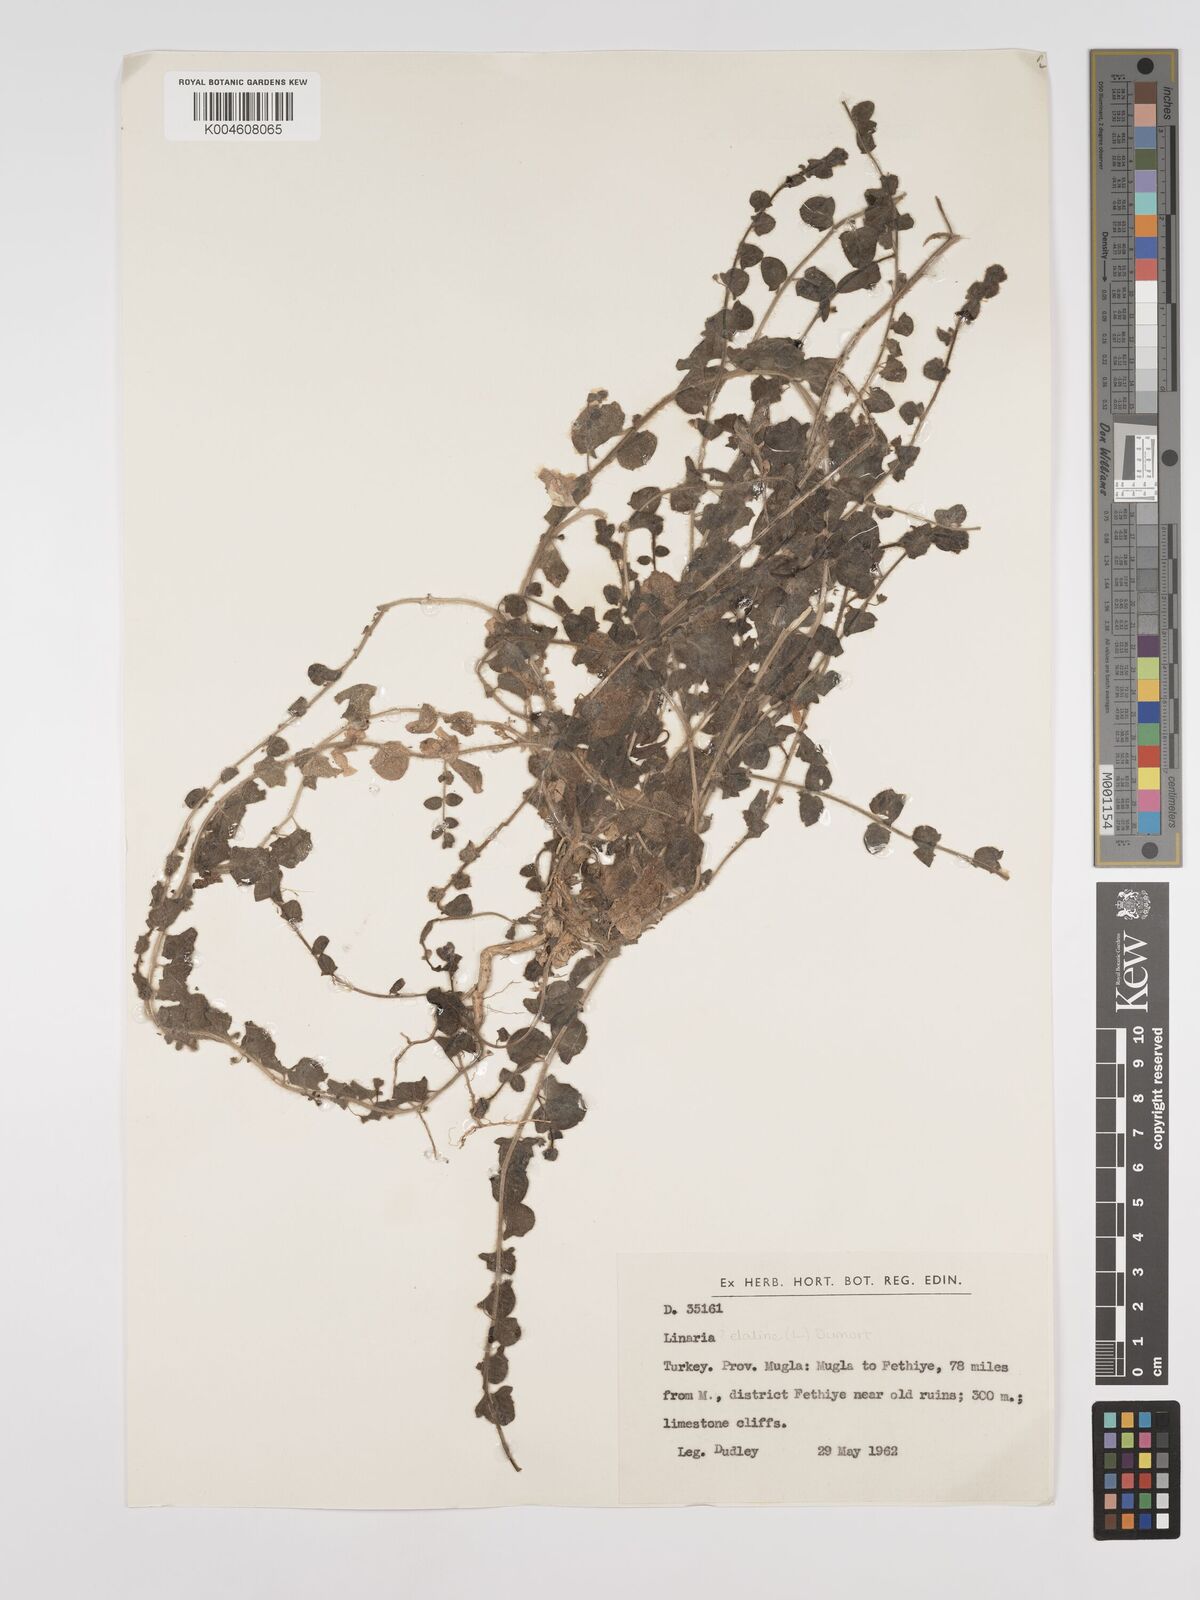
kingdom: Plantae
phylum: Tracheophyta
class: Magnoliopsida
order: Lamiales
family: Plantaginaceae
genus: Kickxia
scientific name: Kickxia elatine
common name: Sharp-leaved fluellen
